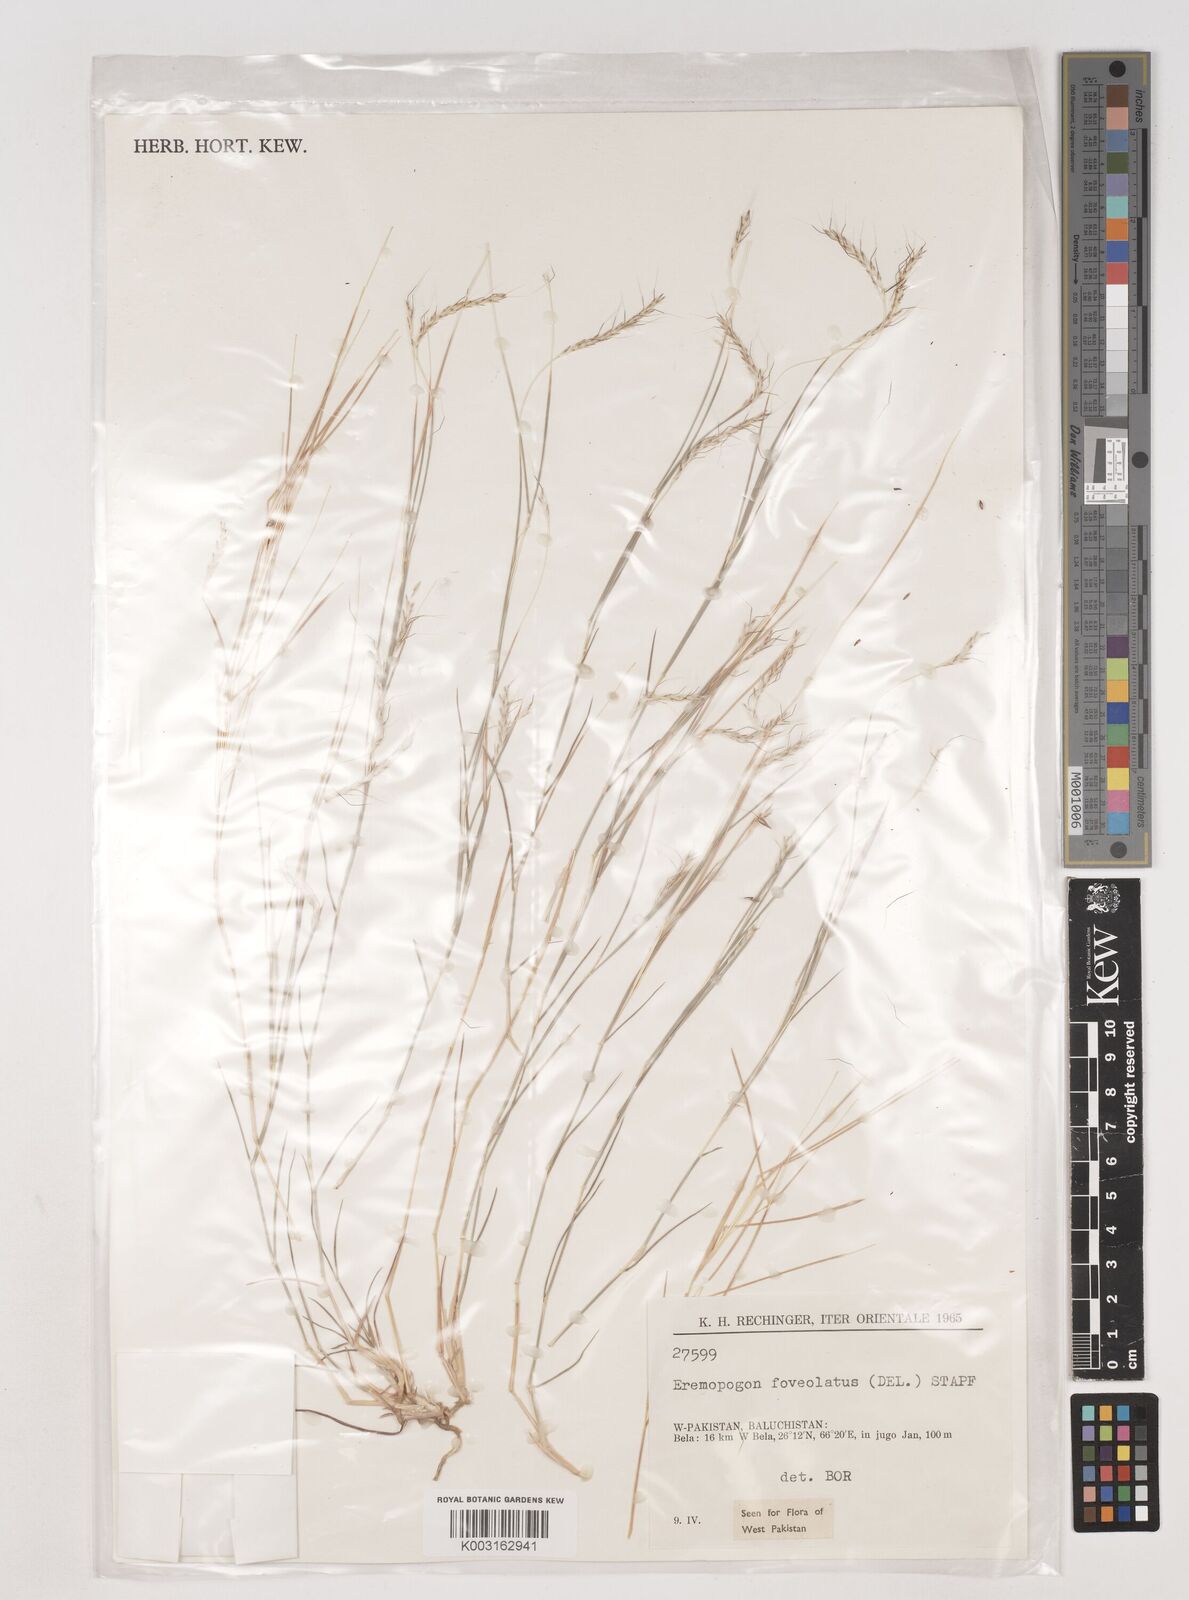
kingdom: Plantae
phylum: Tracheophyta
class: Liliopsida
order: Poales
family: Poaceae
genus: Dichanthium
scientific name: Dichanthium
